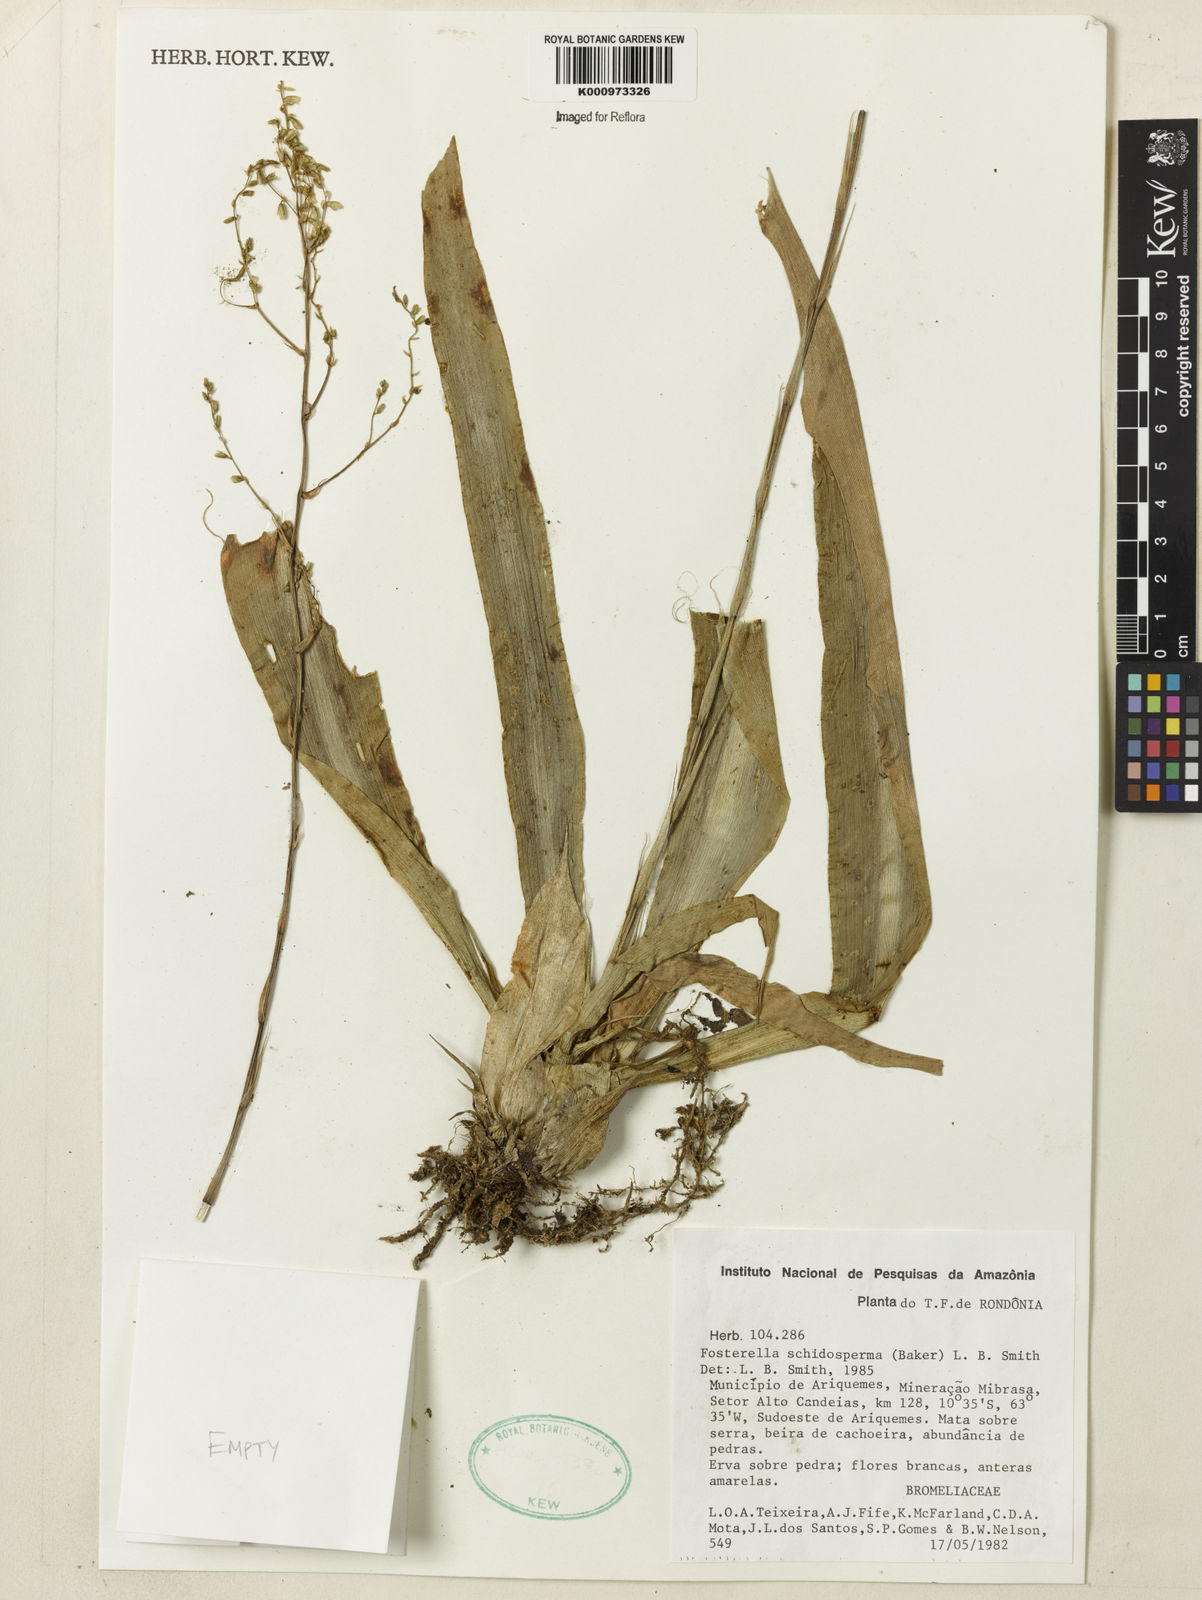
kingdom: Plantae
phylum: Tracheophyta
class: Liliopsida
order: Poales
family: Bromeliaceae
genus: Fosterella
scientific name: Fosterella schidosperma
